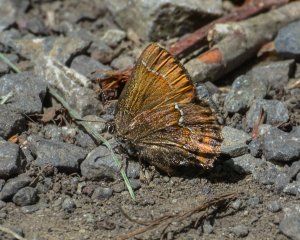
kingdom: Animalia
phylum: Arthropoda
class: Insecta
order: Lepidoptera
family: Lycaenidae
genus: Mitoura
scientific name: Mitoura gryneus
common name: Juniper Hairstreak
